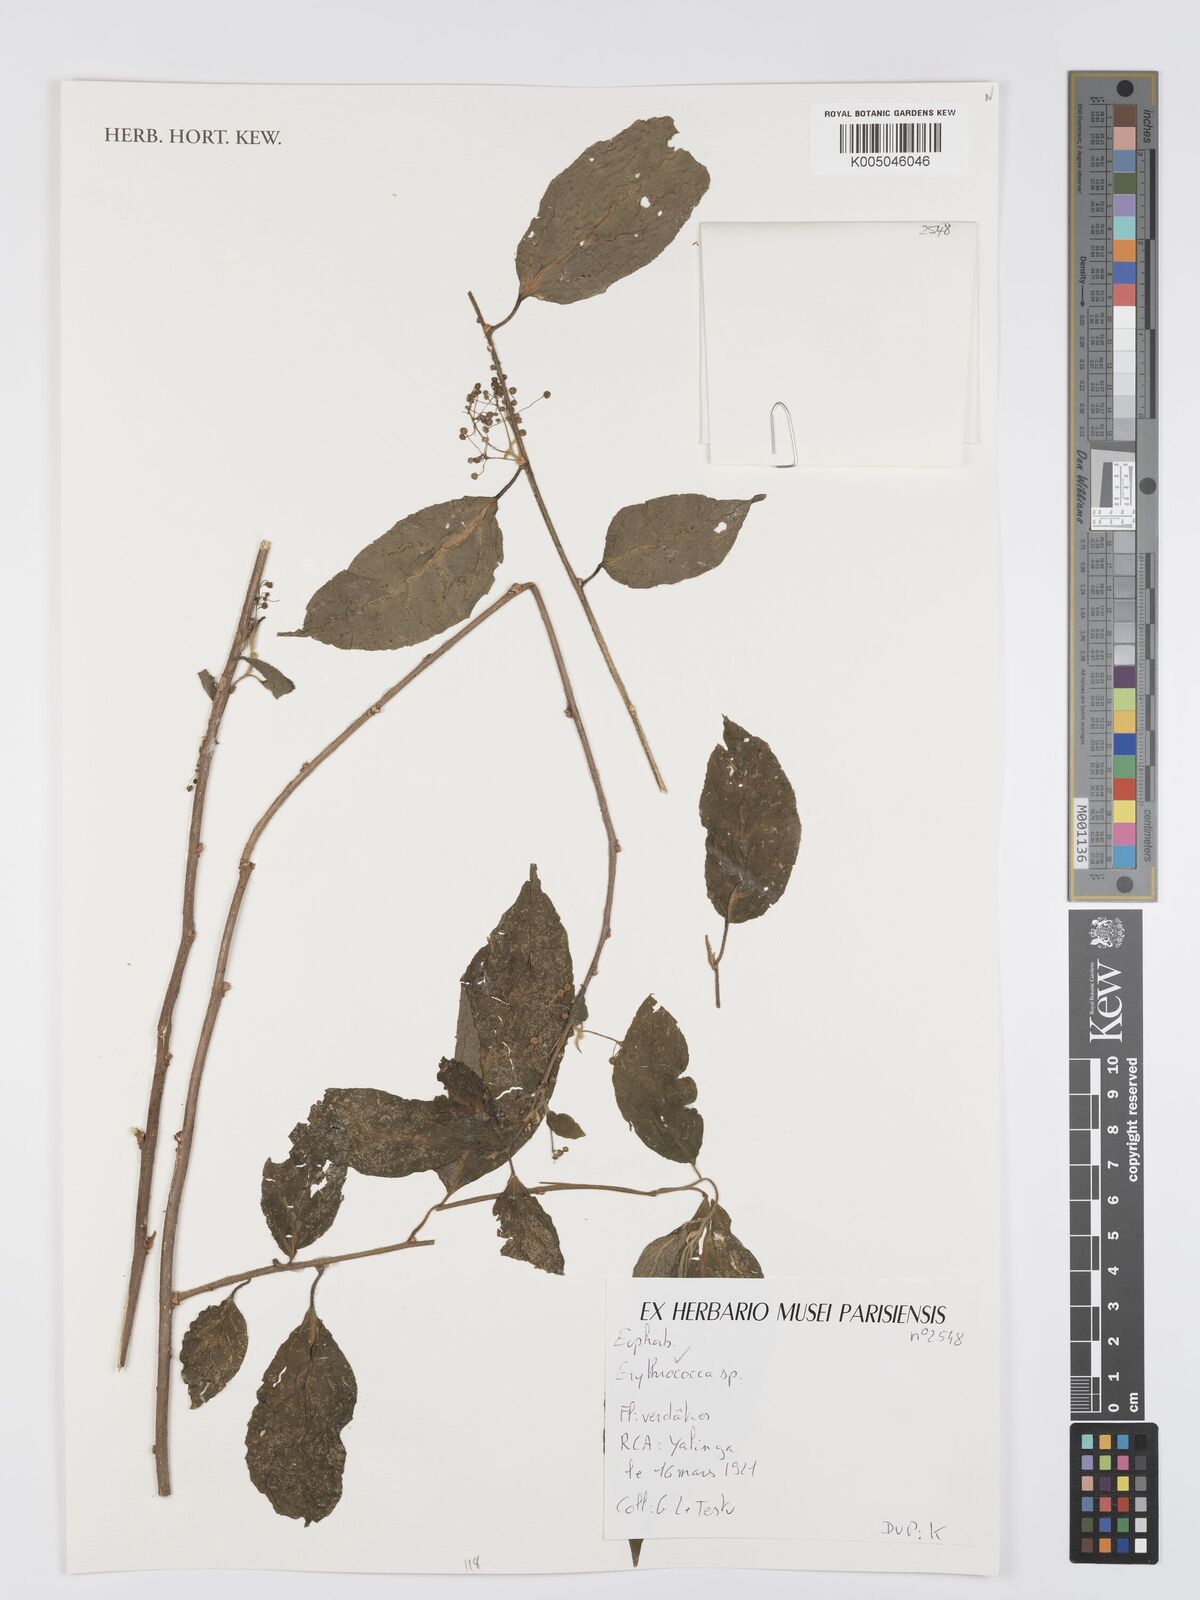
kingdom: Plantae
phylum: Tracheophyta
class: Magnoliopsida
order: Malpighiales
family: Euphorbiaceae
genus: Erythrococca
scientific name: Erythrococca
